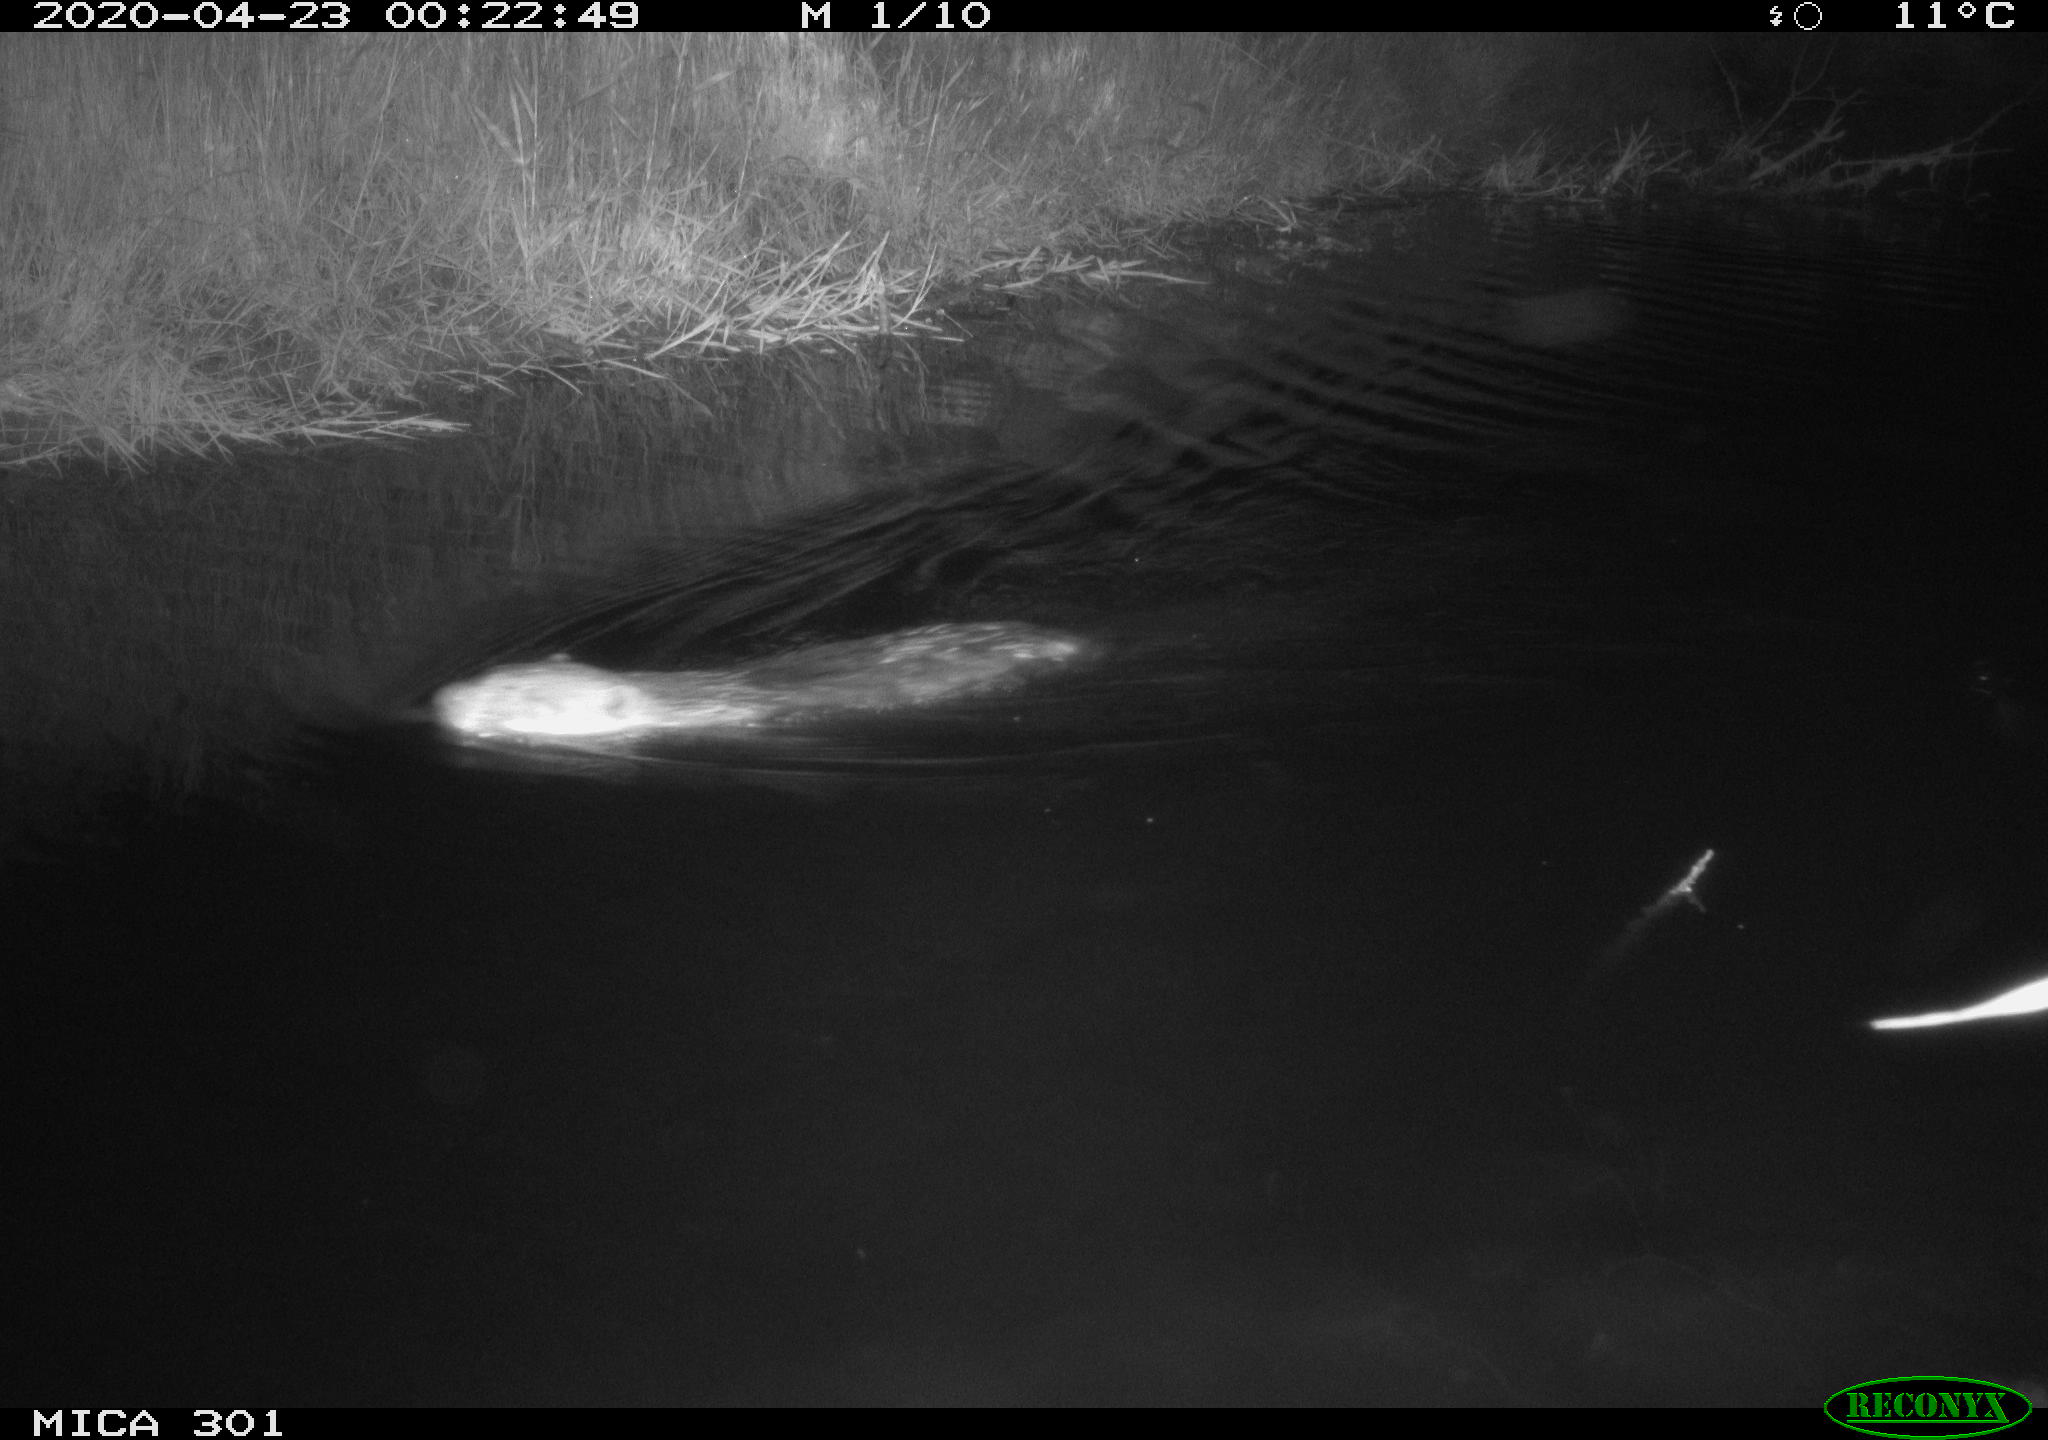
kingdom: Animalia
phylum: Chordata
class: Mammalia
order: Rodentia
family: Castoridae
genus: Castor
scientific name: Castor fiber
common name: Eurasian beaver
